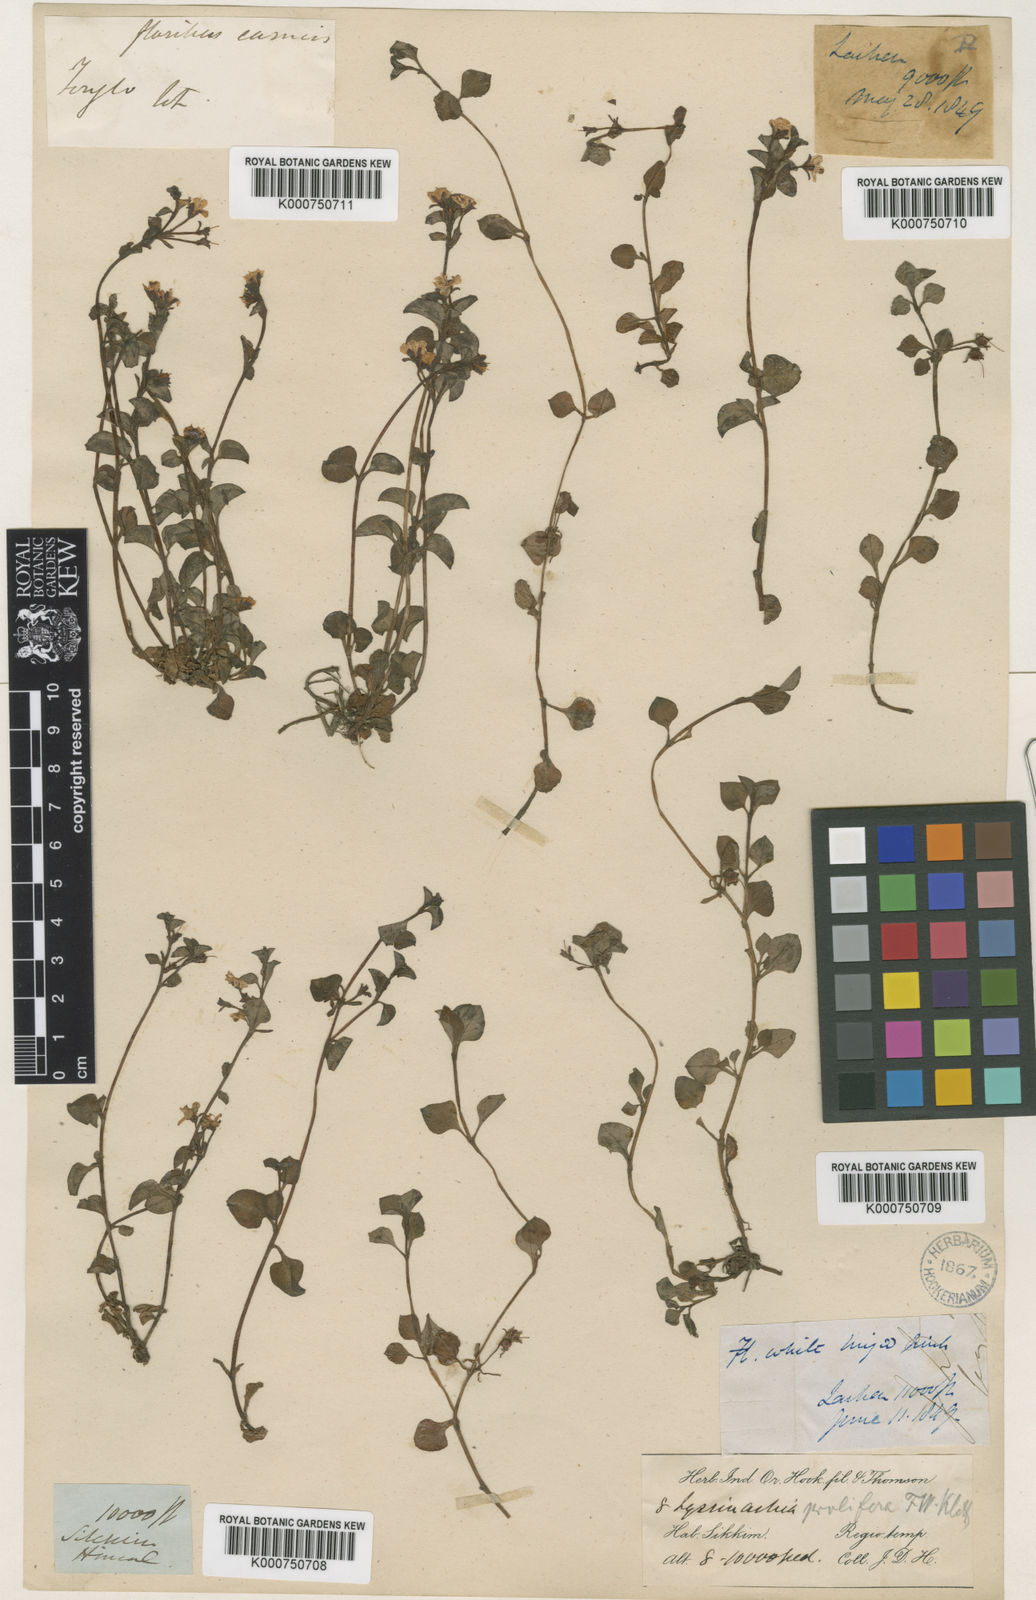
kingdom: Plantae
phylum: Tracheophyta
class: Magnoliopsida
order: Ericales
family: Primulaceae
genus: Lysimachia
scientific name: Lysimachia prolifera
